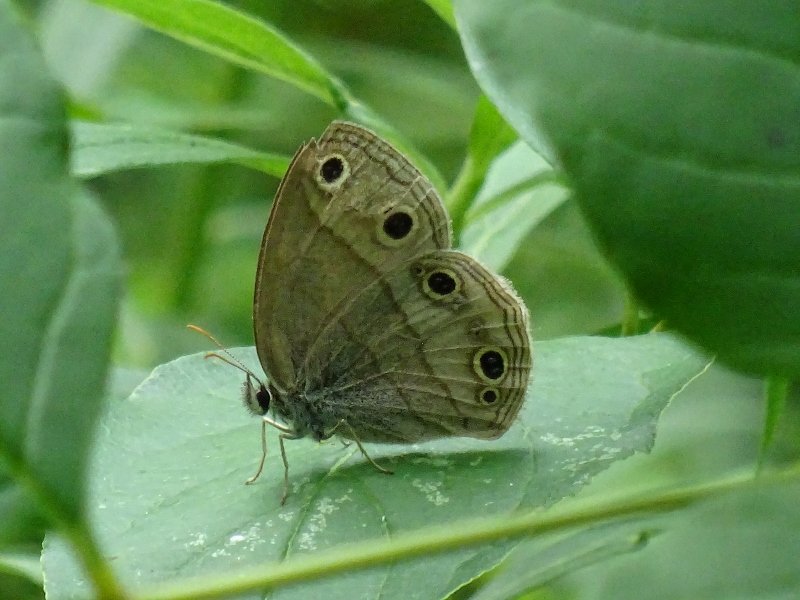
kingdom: Animalia
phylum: Arthropoda
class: Insecta
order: Lepidoptera
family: Nymphalidae
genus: Euptychia
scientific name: Euptychia cymela
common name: Little Wood Satyr
